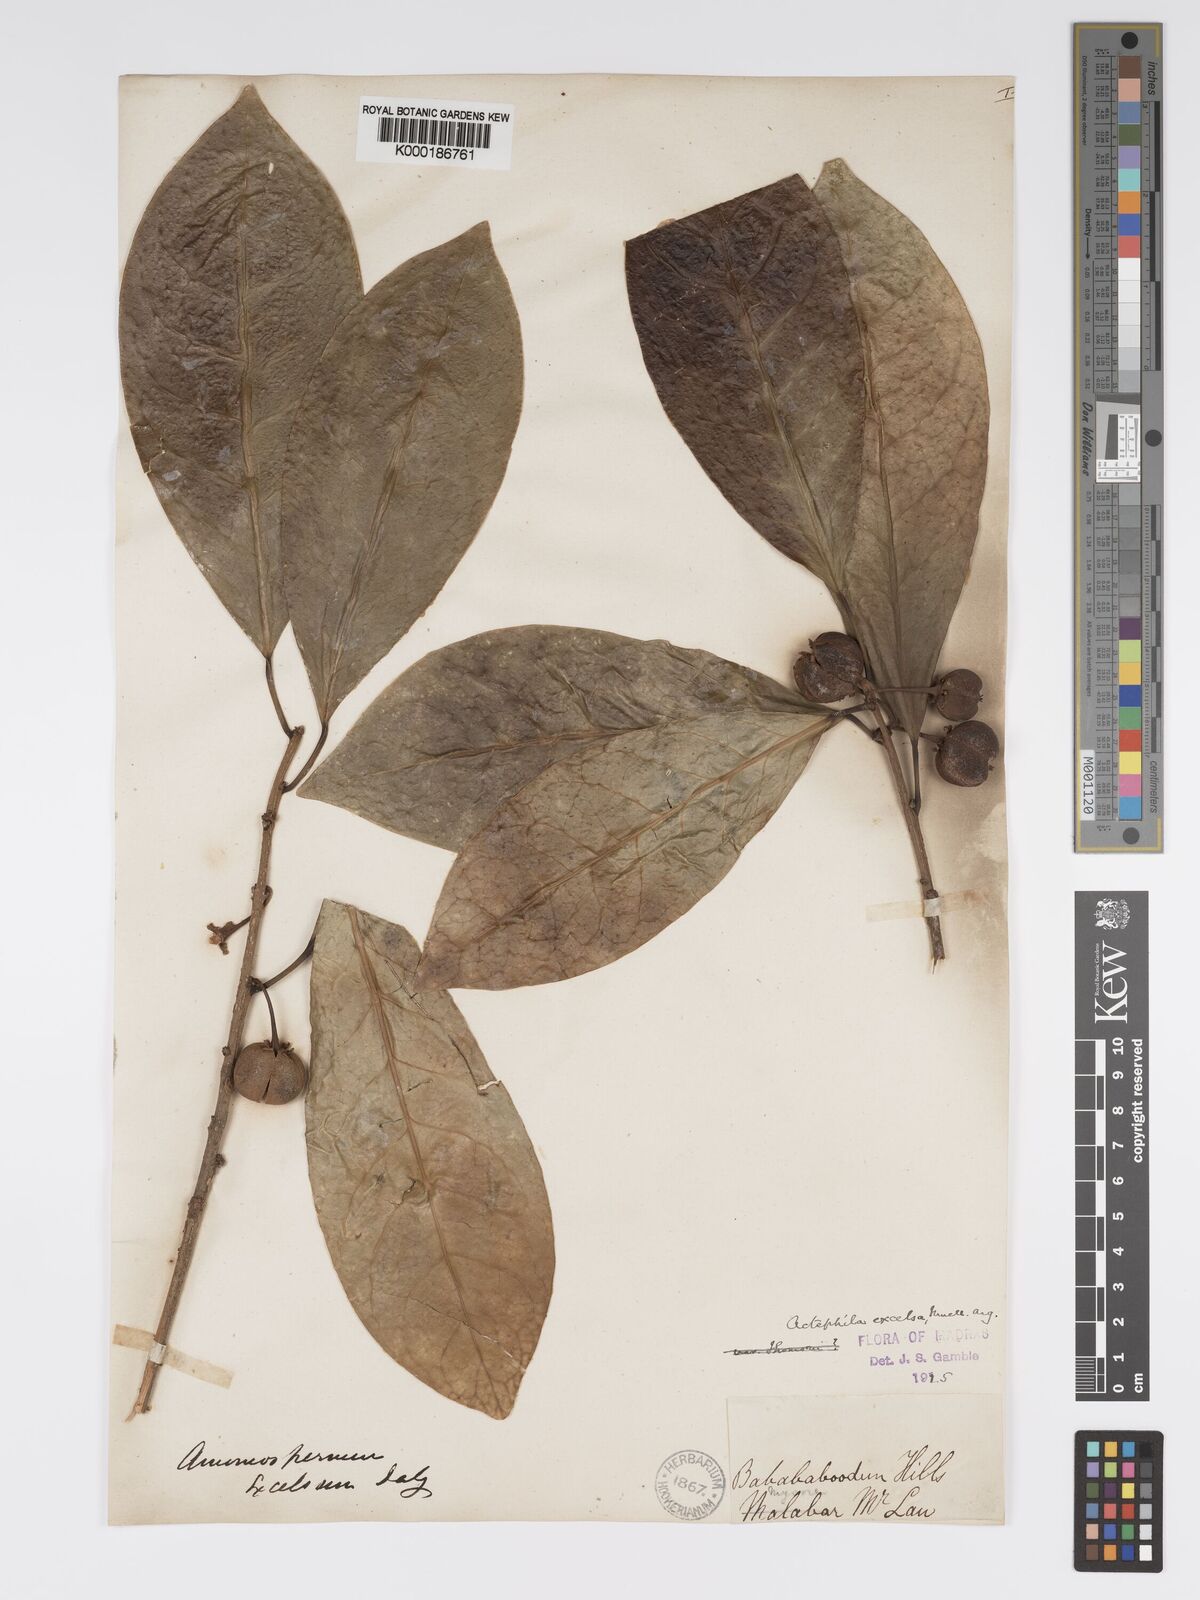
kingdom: Plantae
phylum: Tracheophyta
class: Magnoliopsida
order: Malpighiales
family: Phyllanthaceae
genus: Actephila
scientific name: Actephila excelsa
